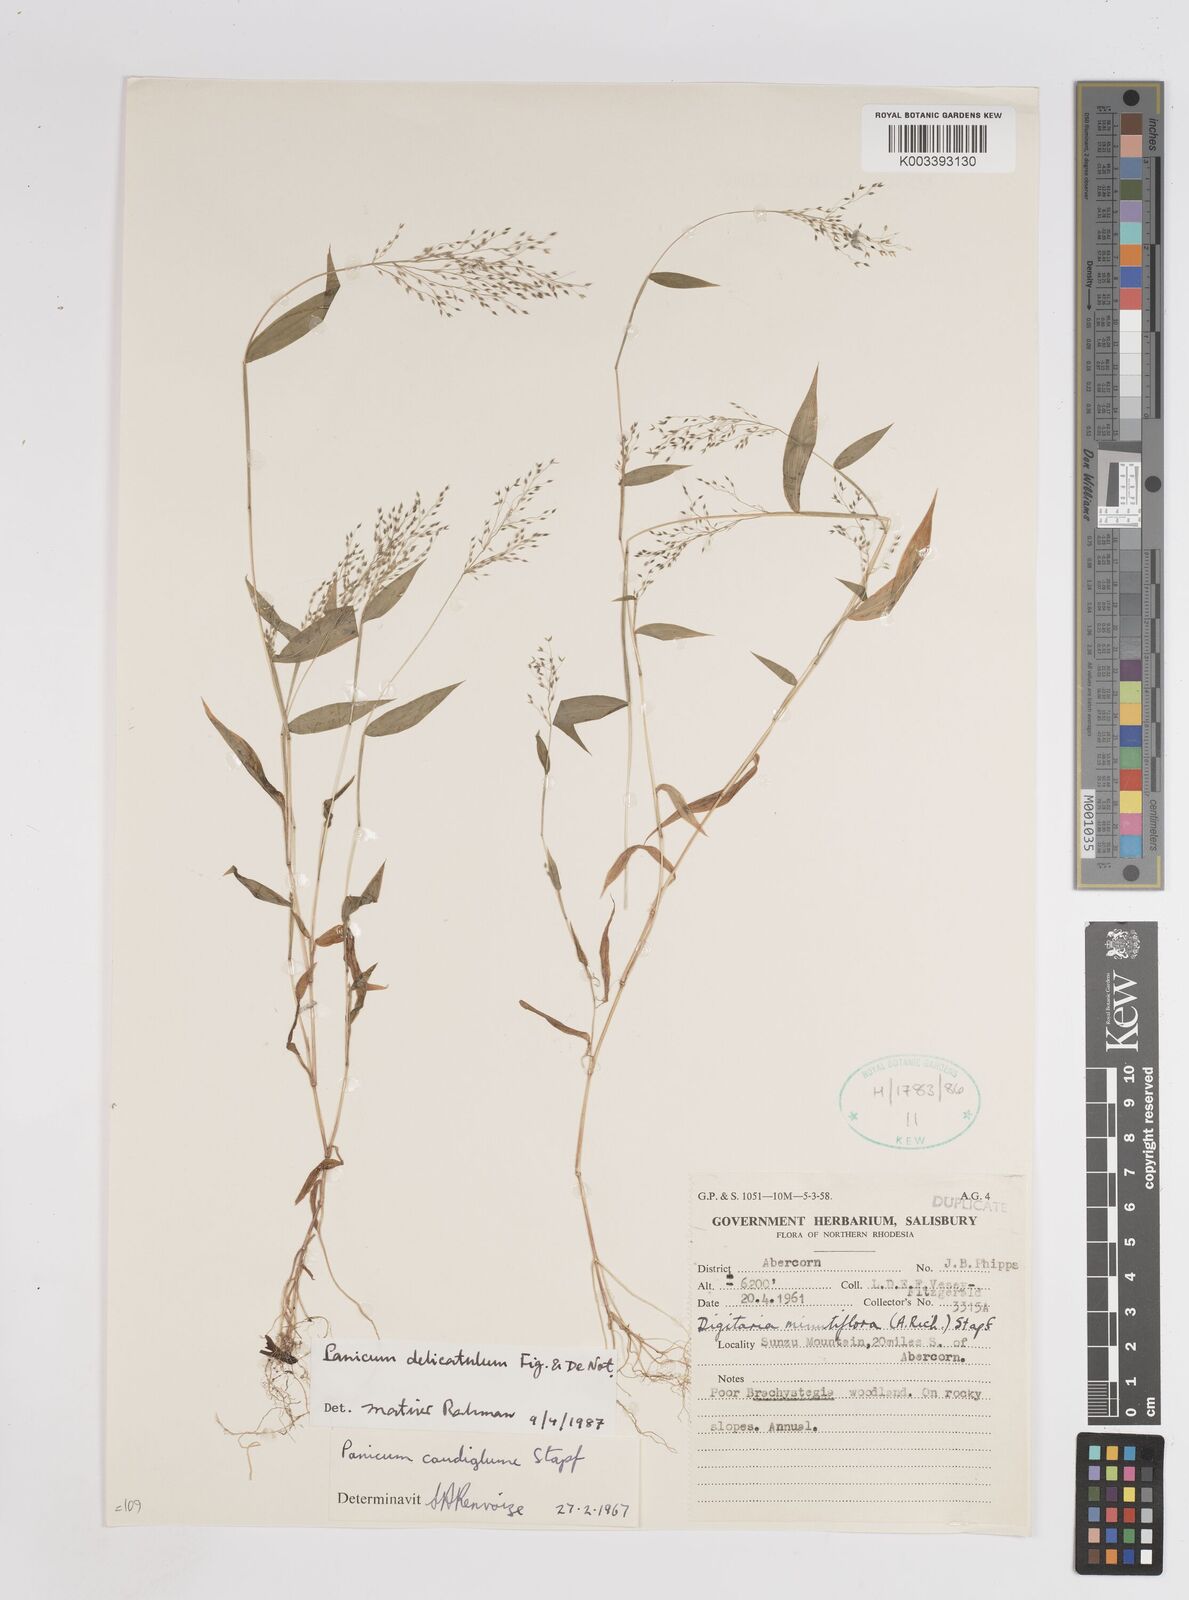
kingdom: Plantae
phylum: Tracheophyta
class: Liliopsida
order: Poales
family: Poaceae
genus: Panicum
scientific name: Panicum delicatulum
